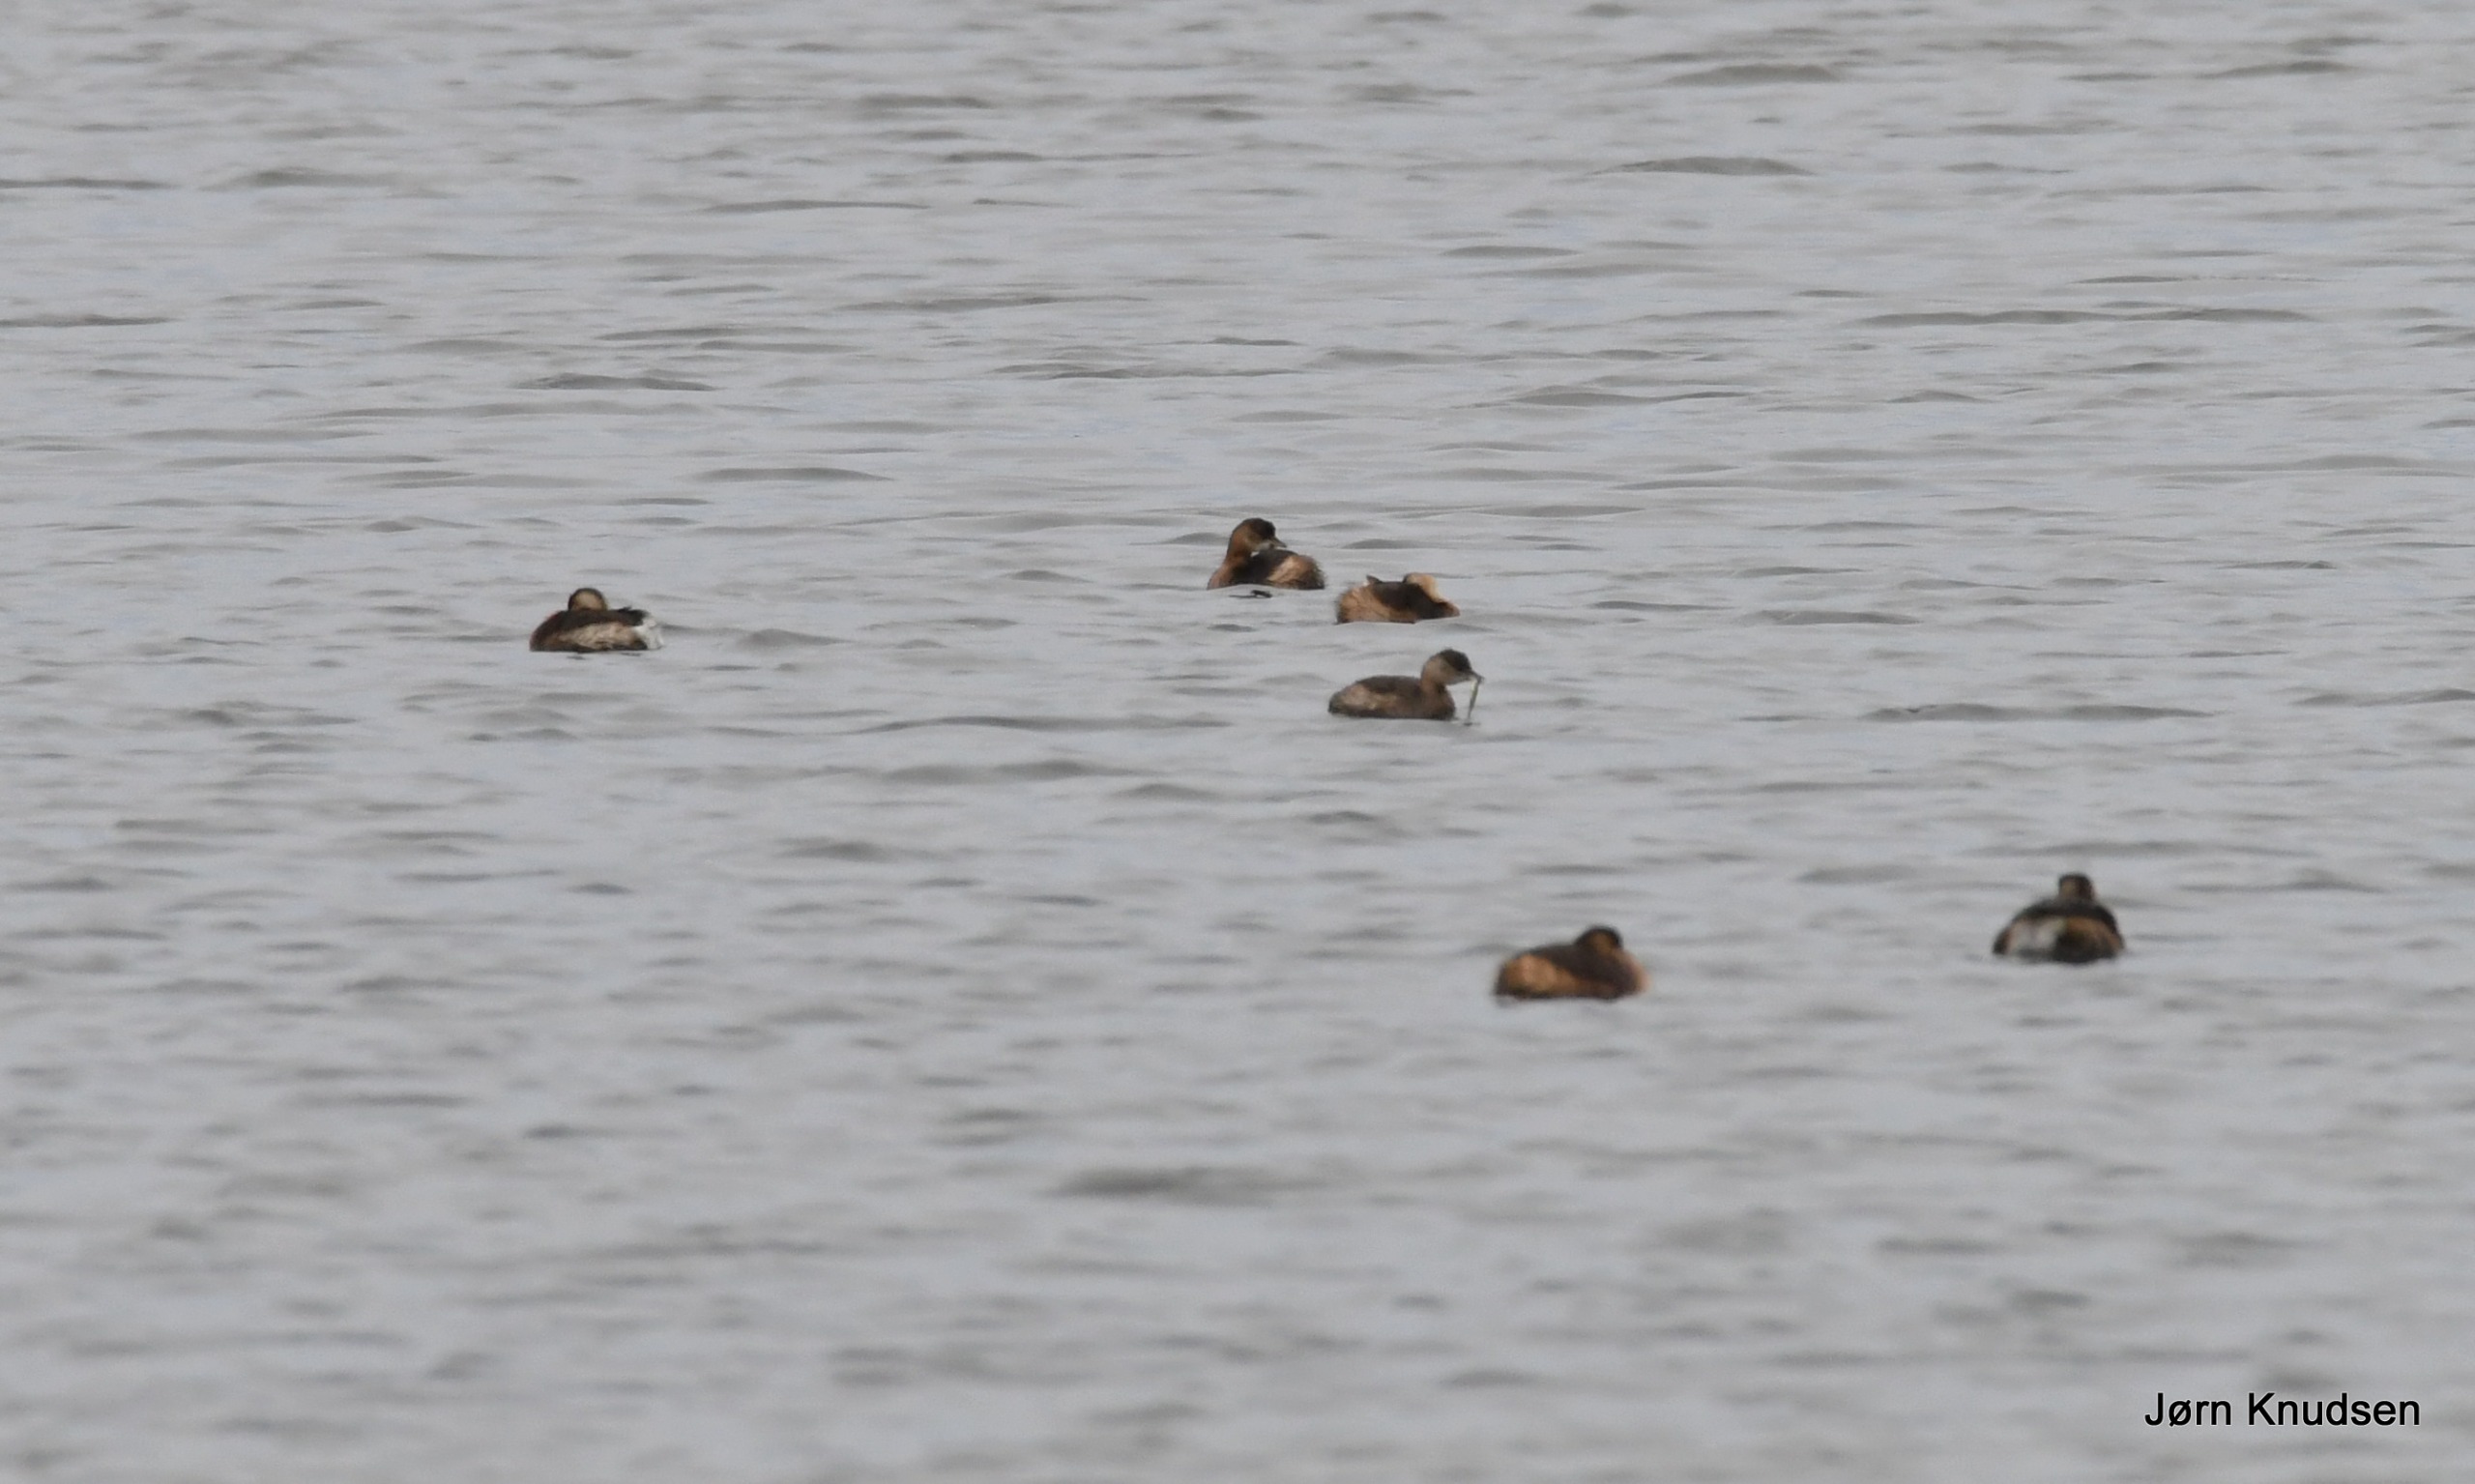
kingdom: Animalia
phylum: Chordata
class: Aves
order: Podicipediformes
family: Podicipedidae
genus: Tachybaptus
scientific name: Tachybaptus ruficollis
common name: Lille lappedykker
